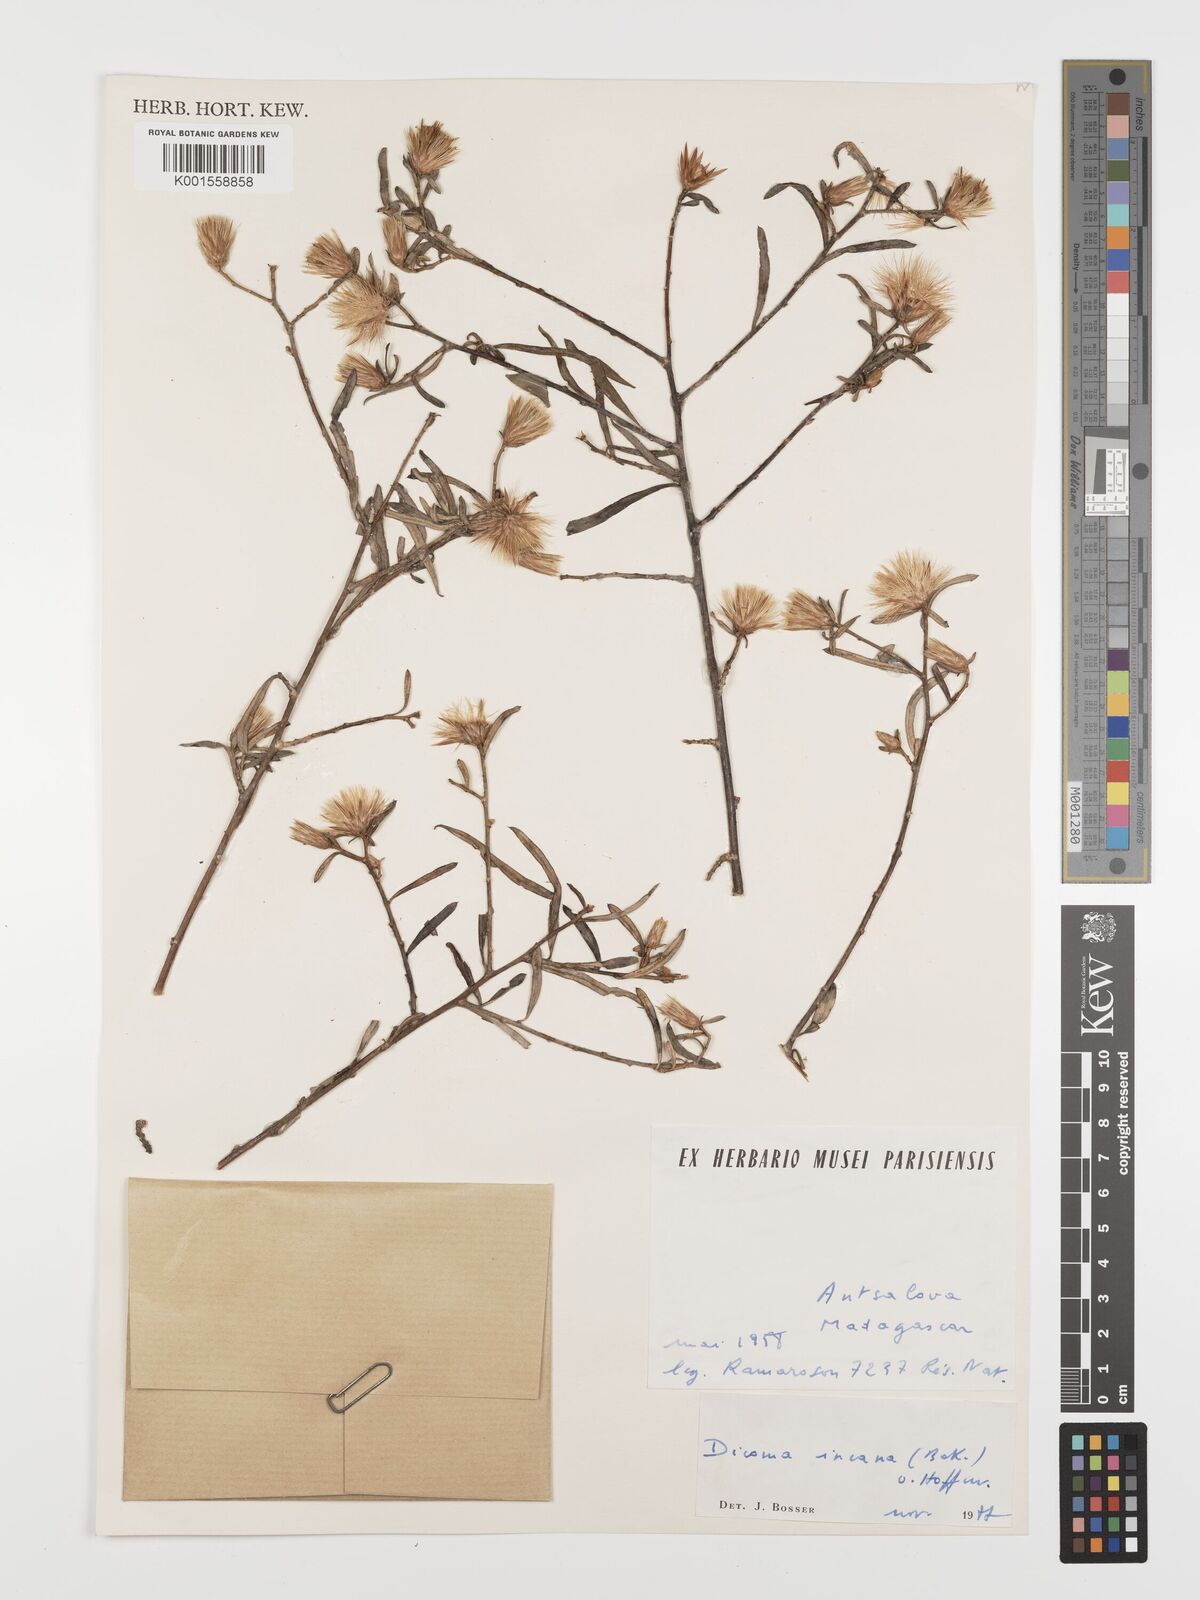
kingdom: Plantae
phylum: Tracheophyta
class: Magnoliopsida
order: Asterales
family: Asteraceae
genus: Dicoma
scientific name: Dicoma incana
